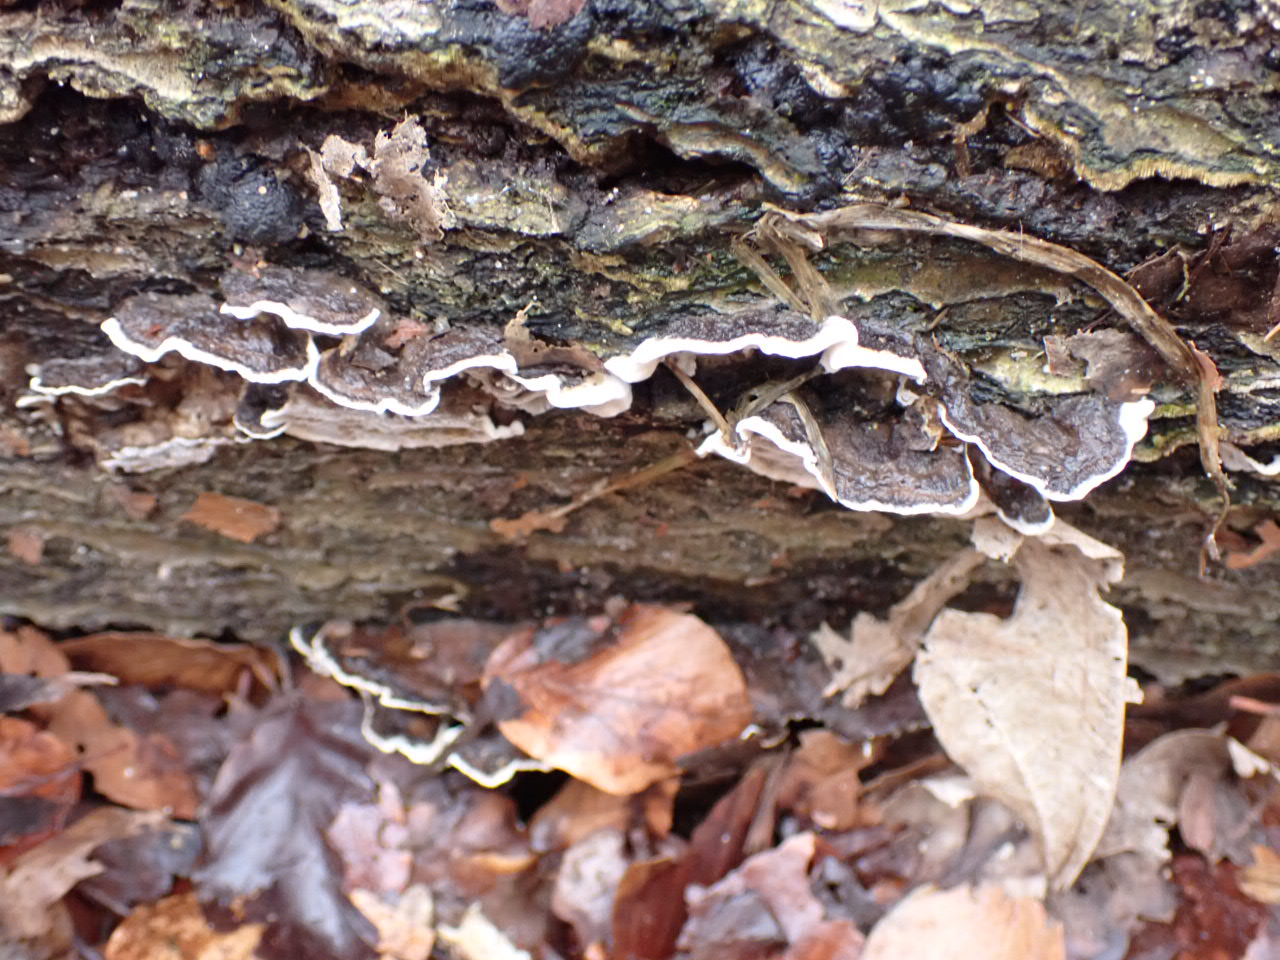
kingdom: Fungi
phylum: Basidiomycota
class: Agaricomycetes
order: Polyporales
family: Phanerochaetaceae
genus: Bjerkandera
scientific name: Bjerkandera adusta
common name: sveden sodporesvamp
